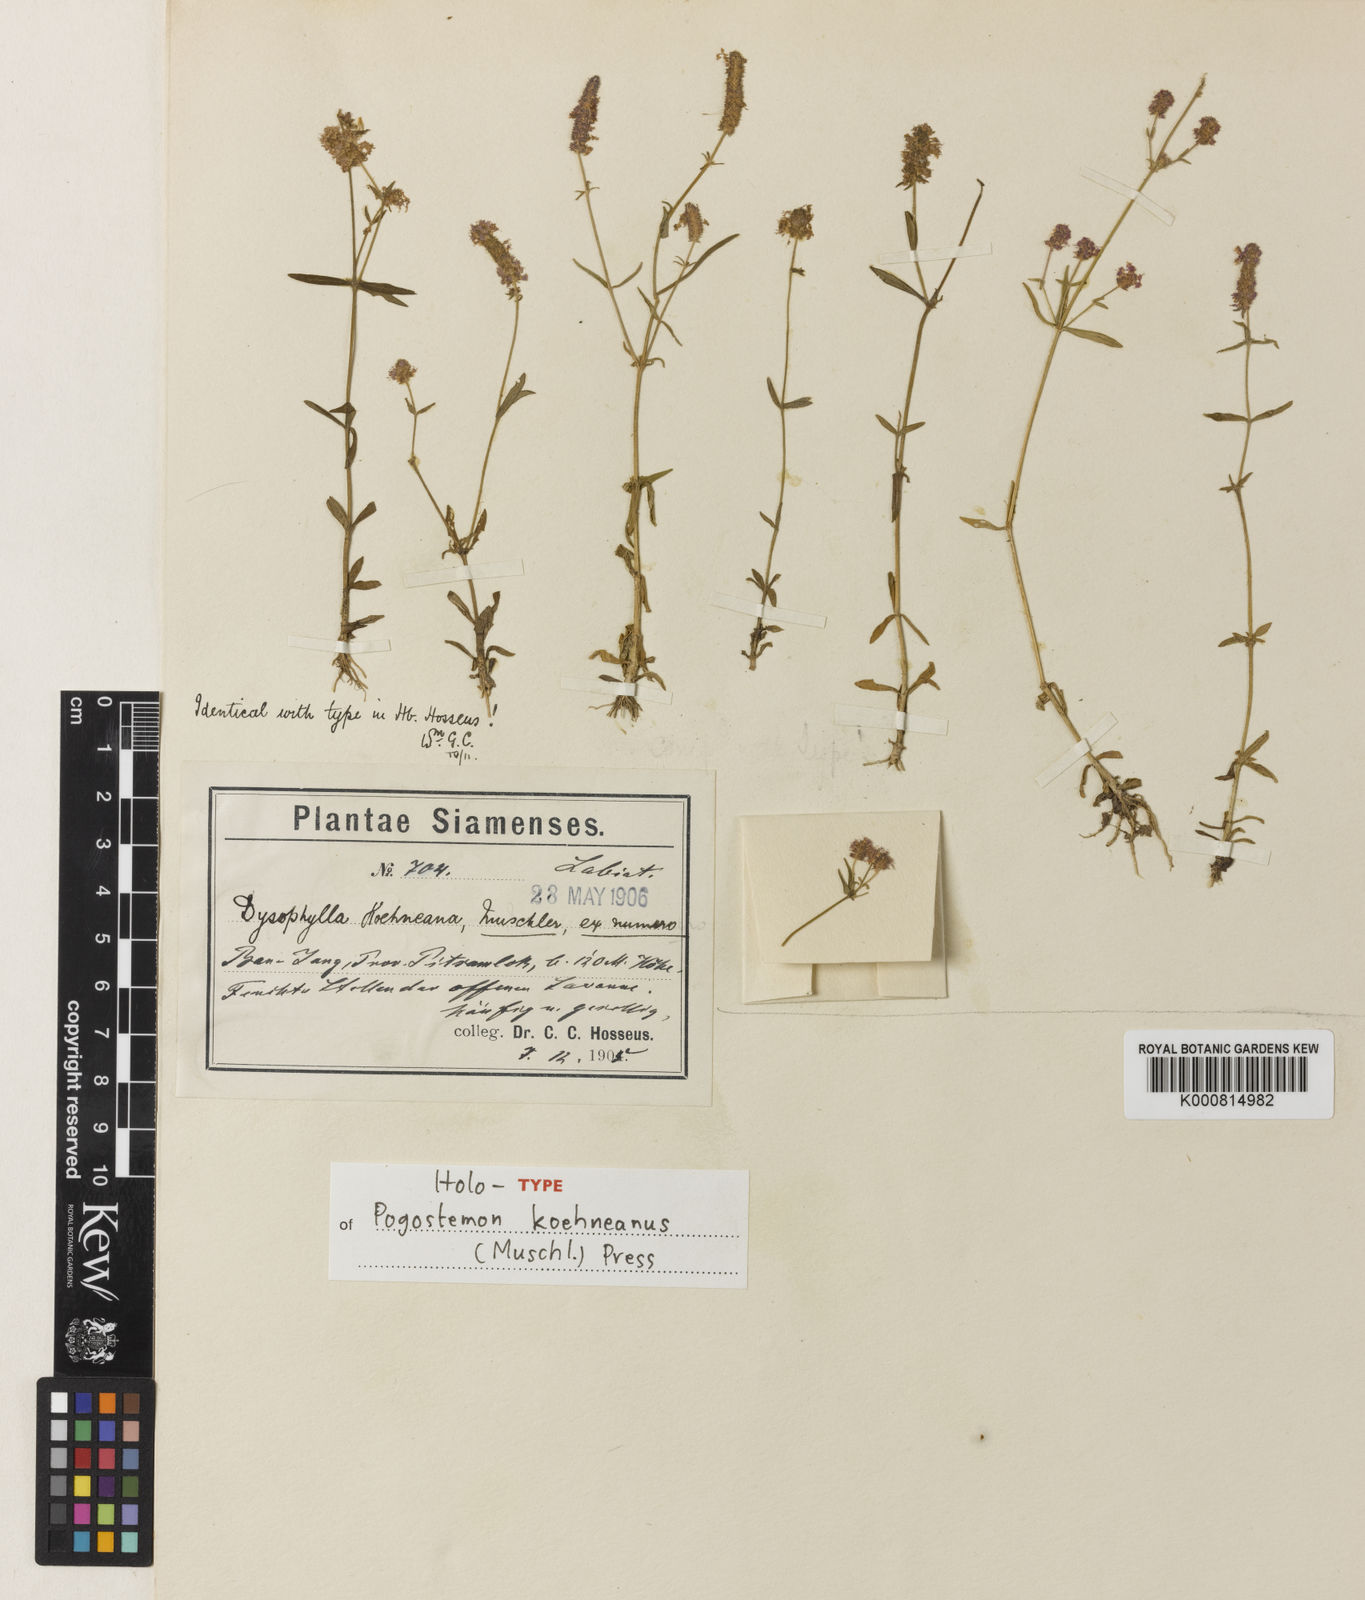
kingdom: Plantae
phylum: Tracheophyta
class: Magnoliopsida
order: Lamiales
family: Lamiaceae
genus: Pogostemon
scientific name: Pogostemon koehneanus
